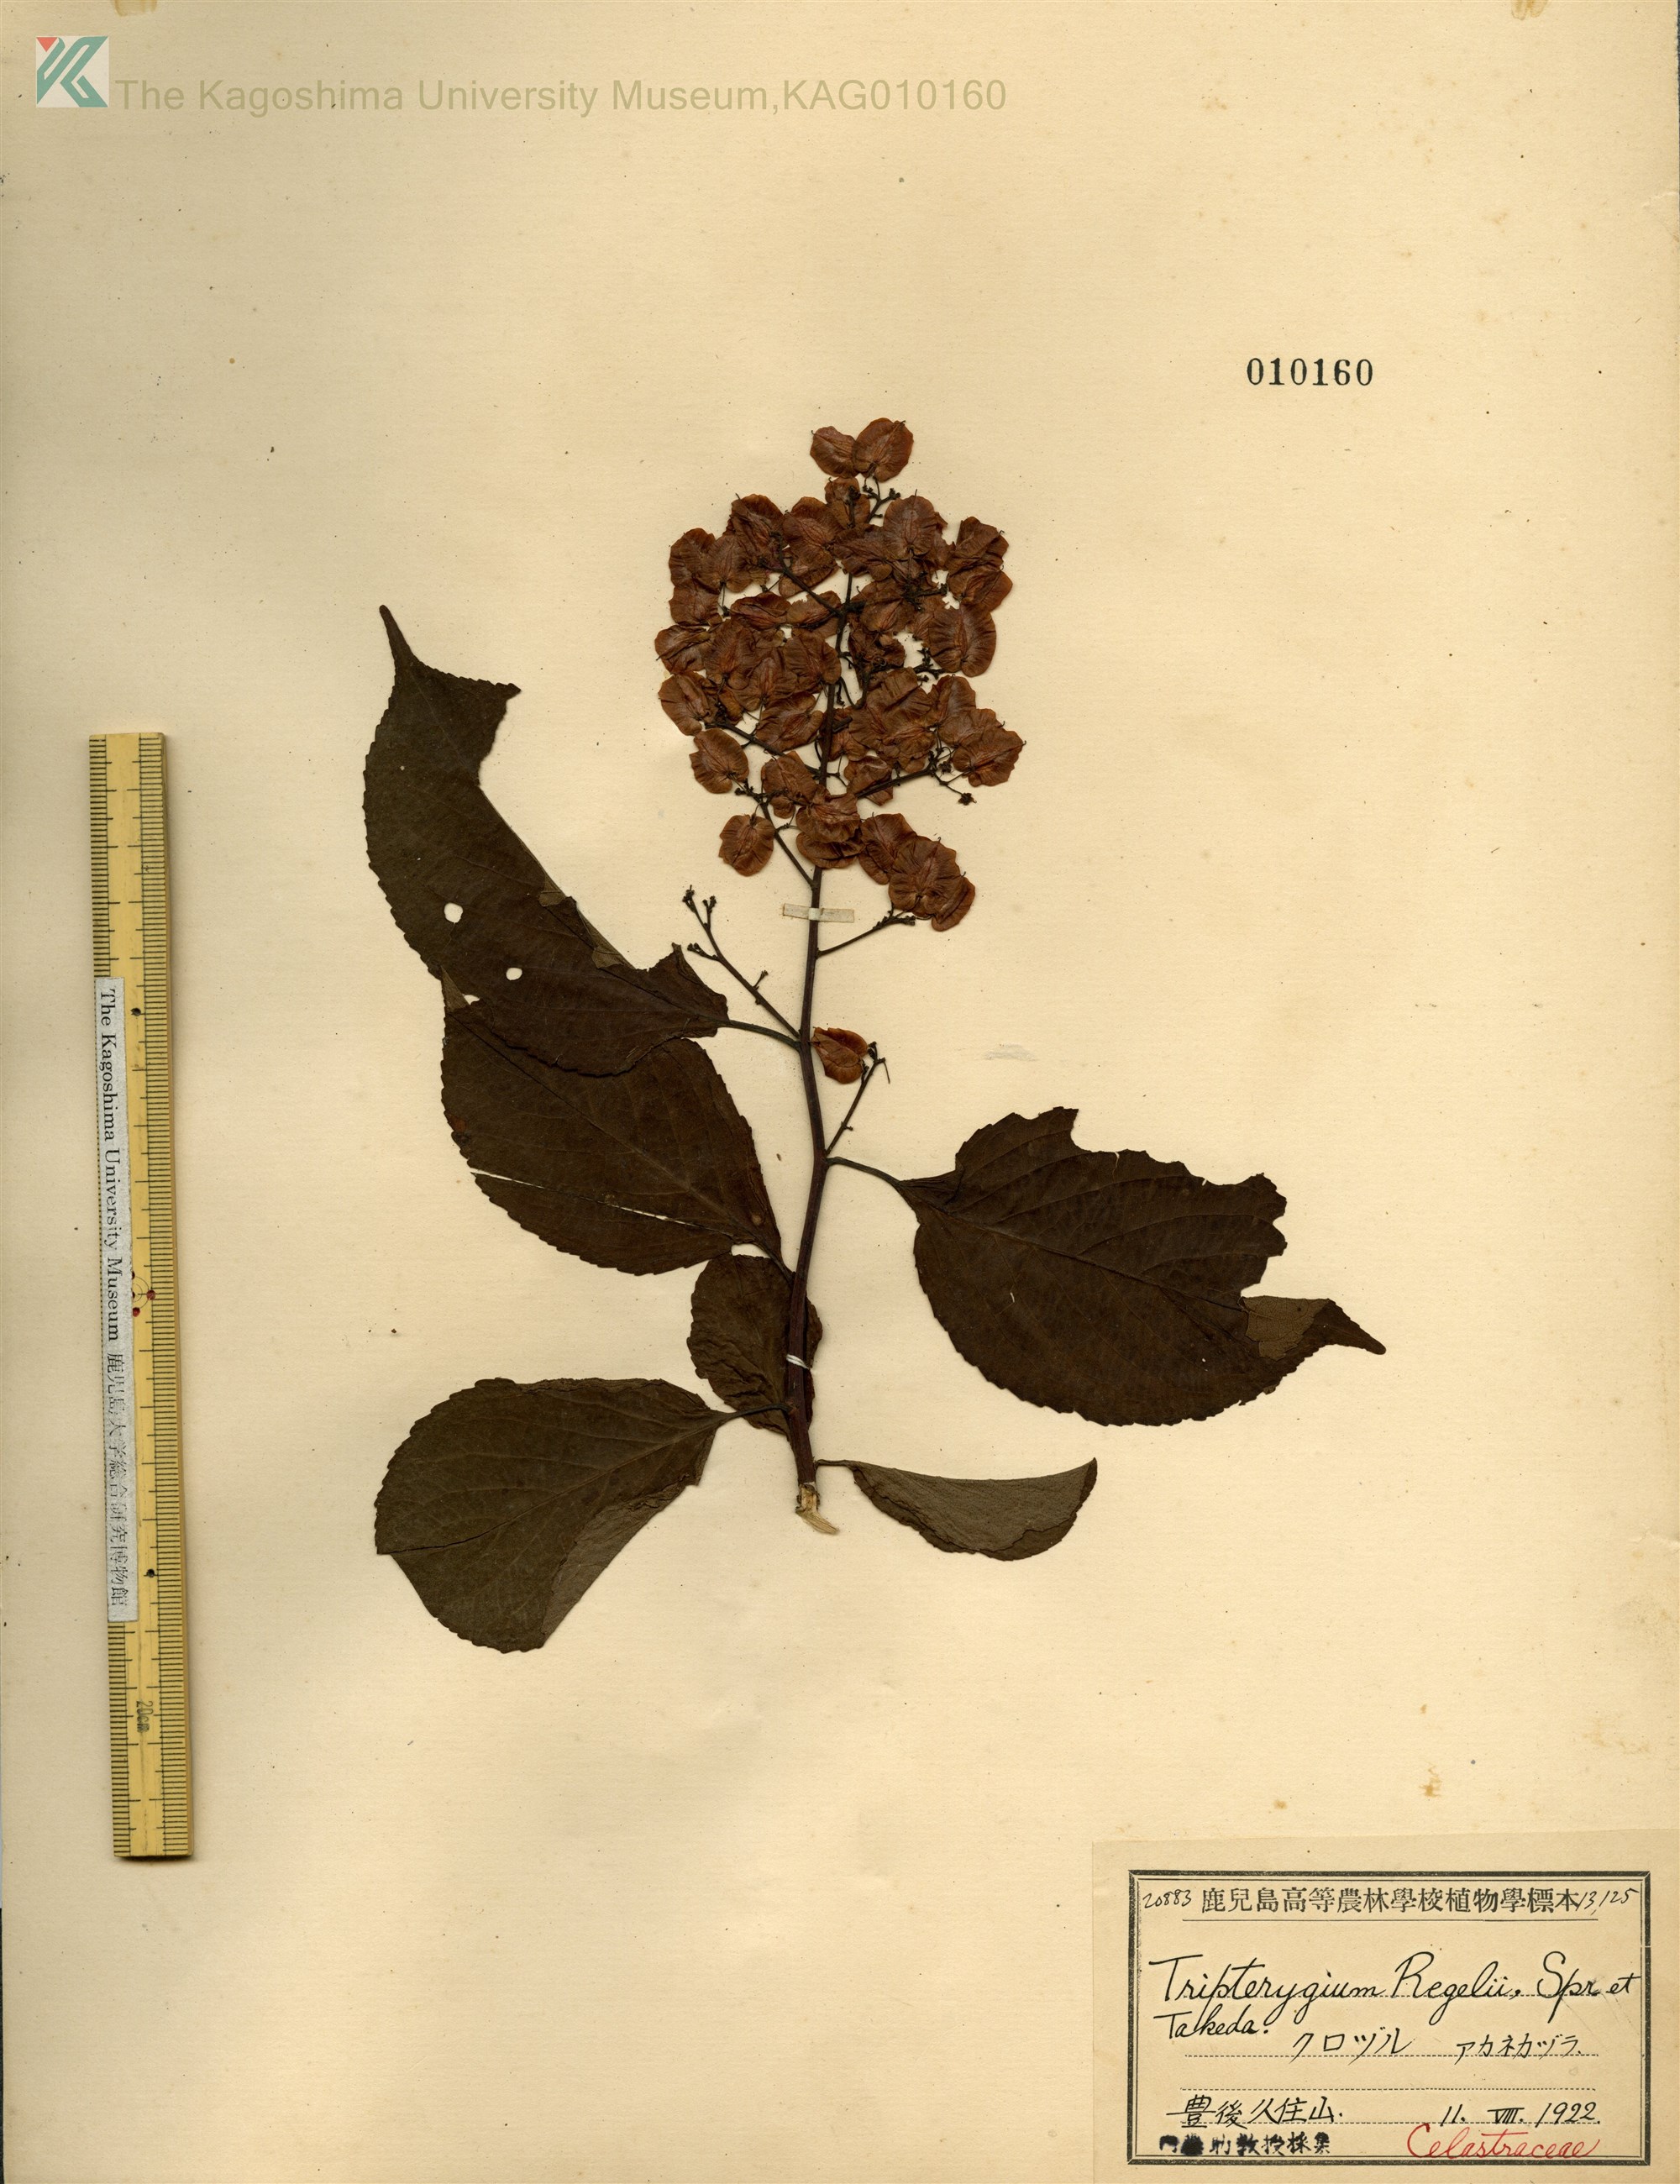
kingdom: Plantae
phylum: Tracheophyta
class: Magnoliopsida
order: Celastrales
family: Celastraceae
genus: Tripterygium
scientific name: Tripterygium wilfordii
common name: クロヅル
